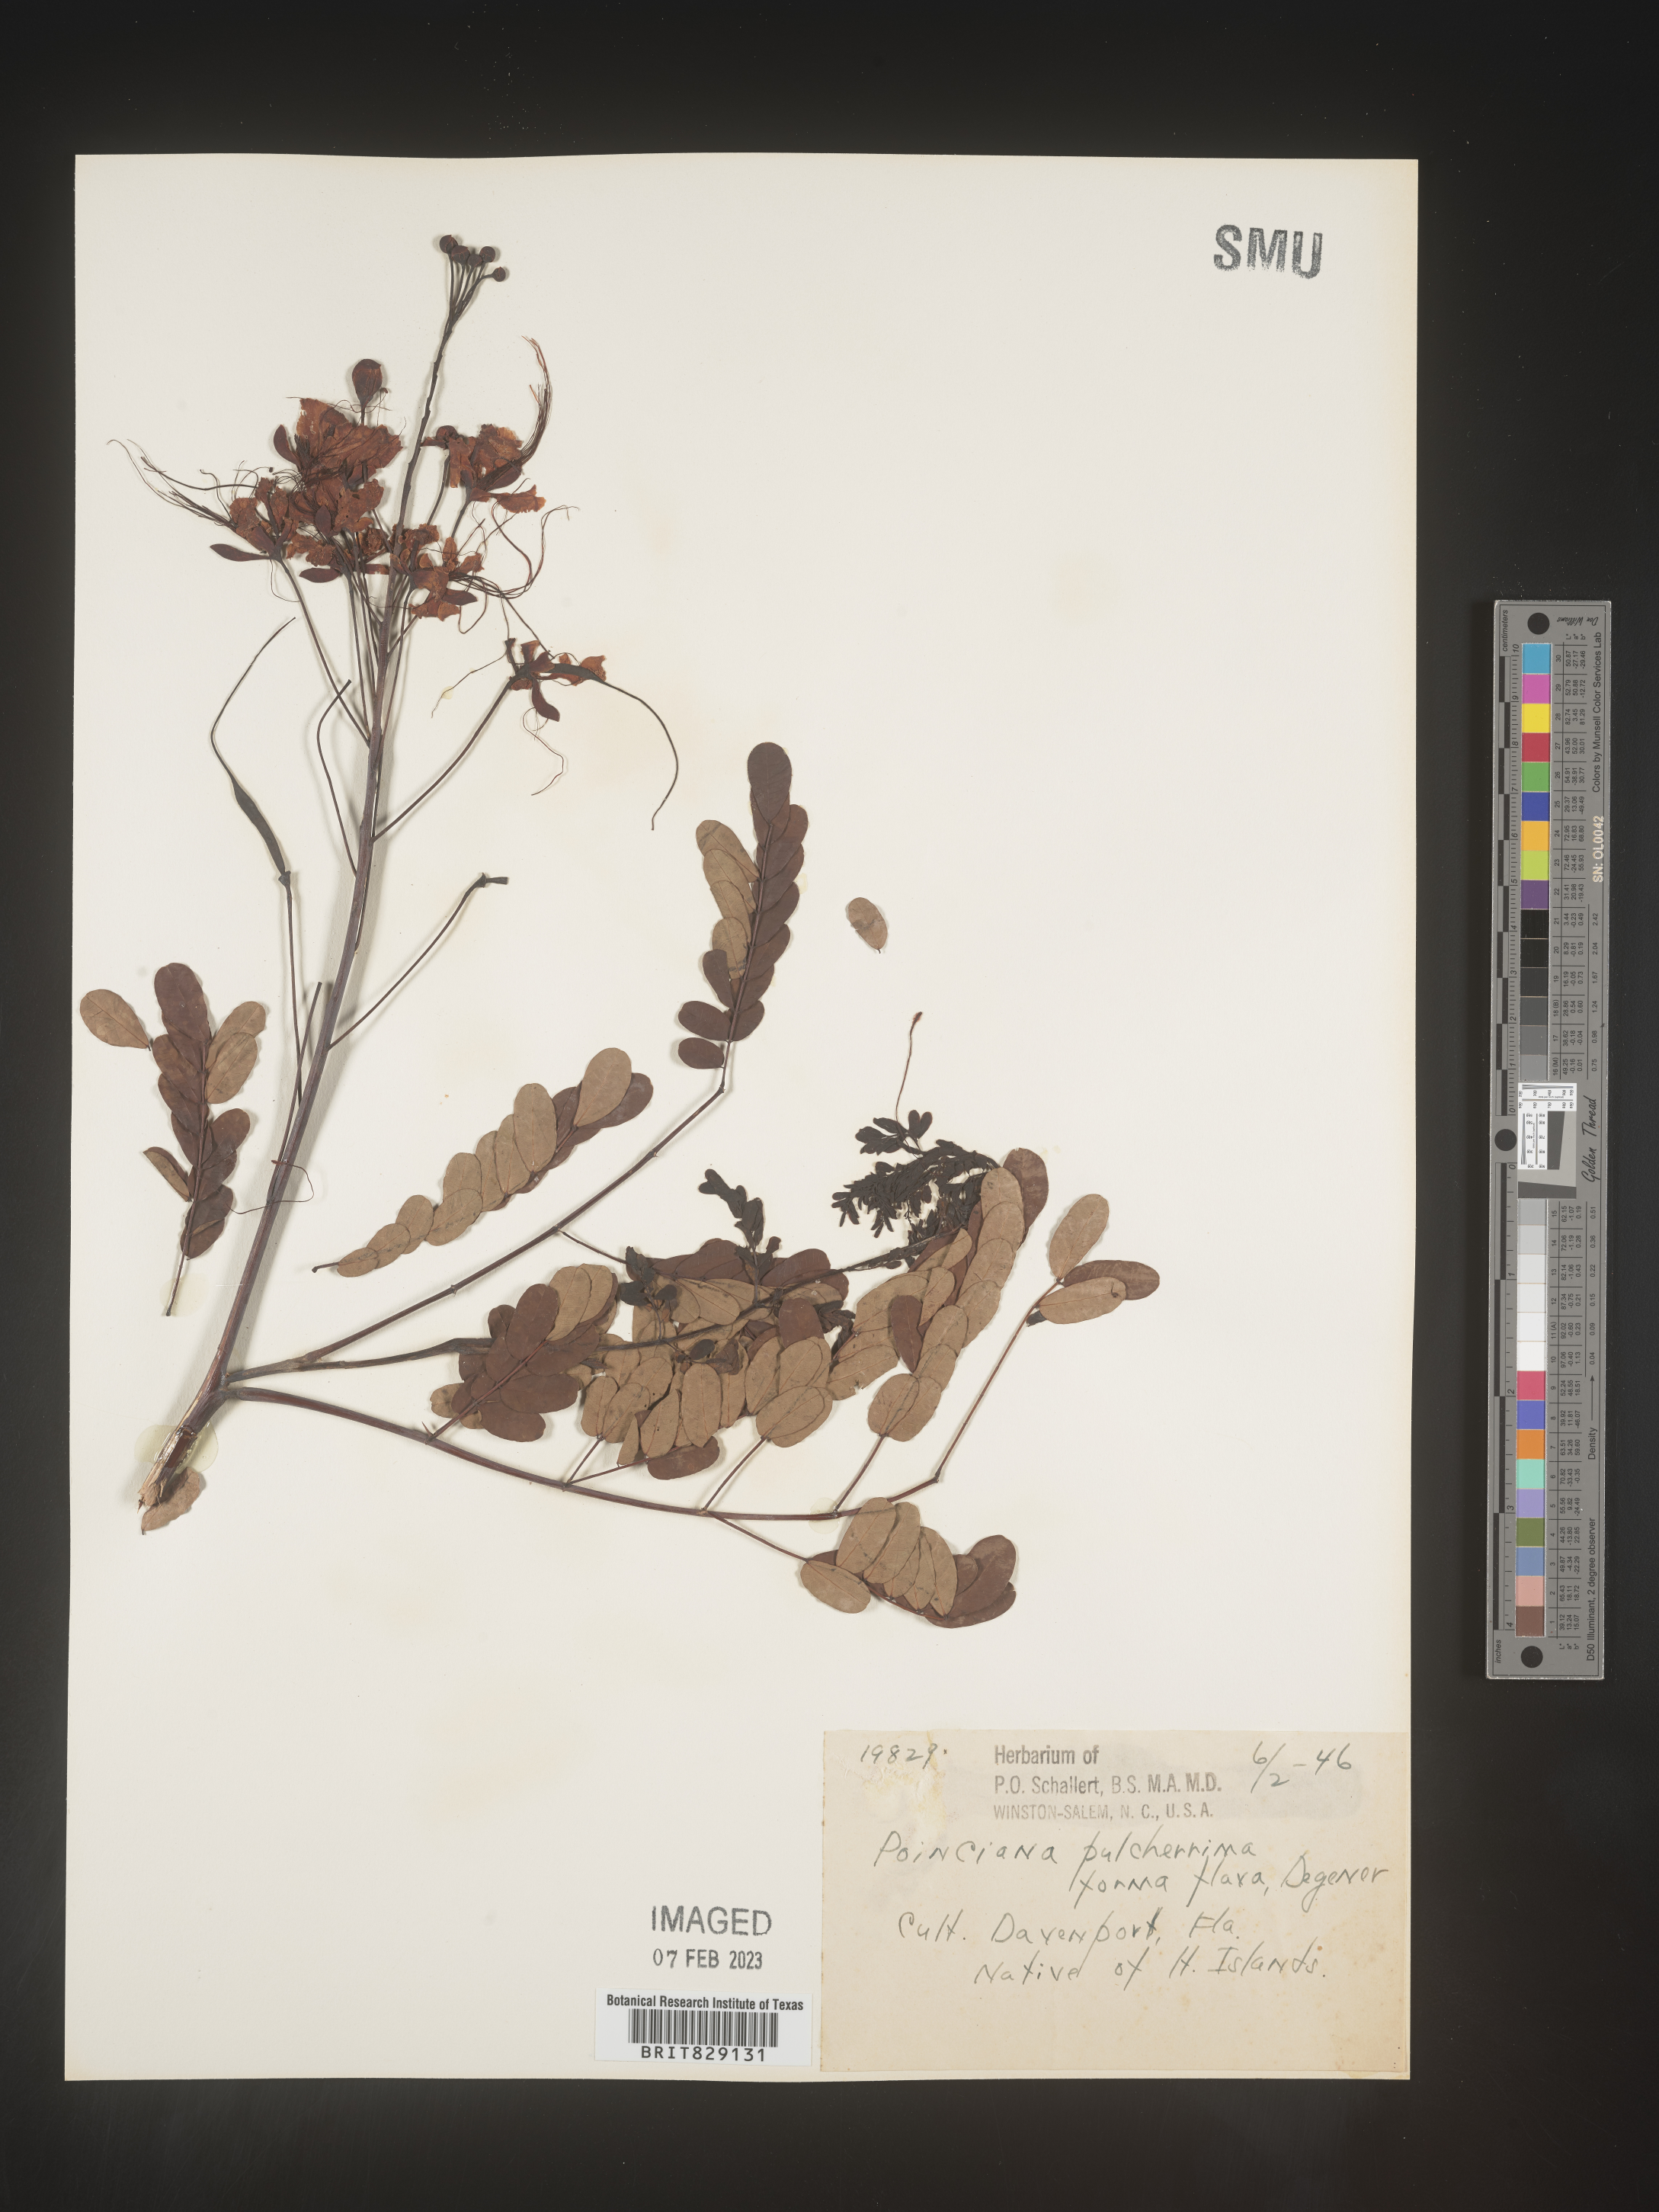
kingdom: Plantae
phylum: Tracheophyta
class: Magnoliopsida
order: Fabales
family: Fabaceae
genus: Caesalpinia
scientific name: Caesalpinia
